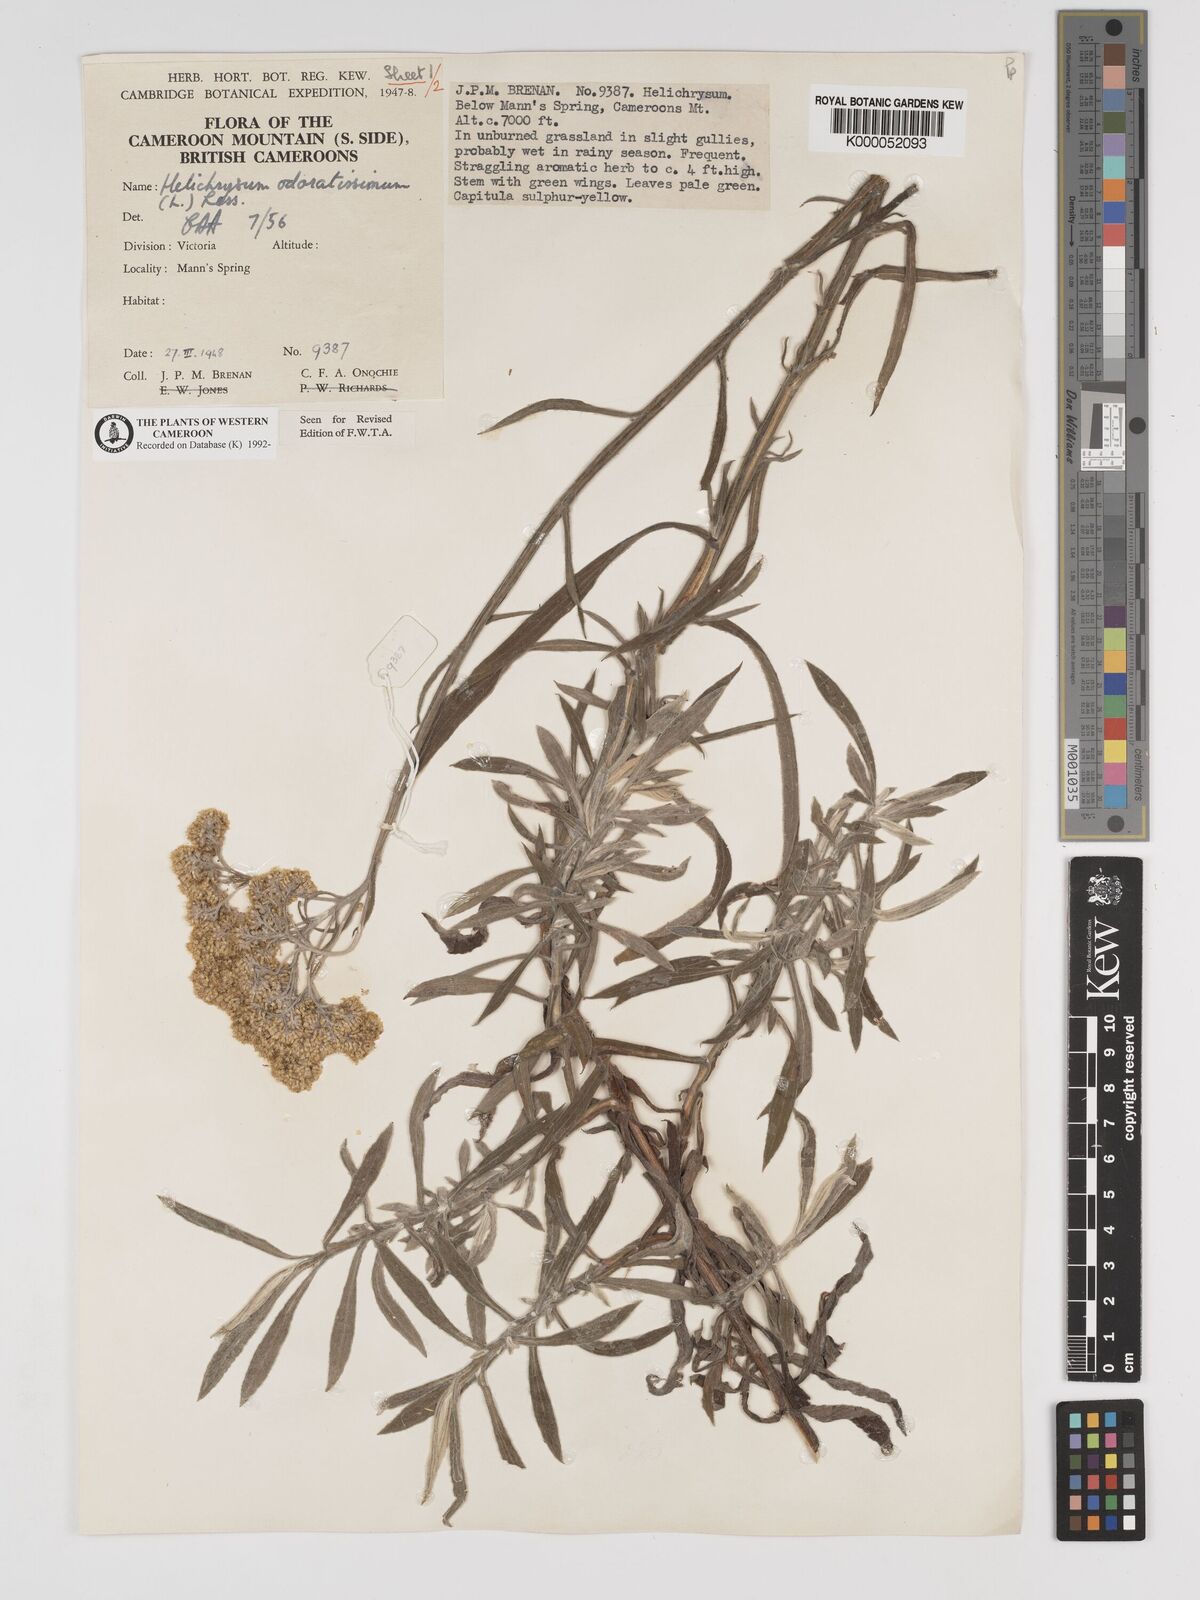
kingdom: Plantae
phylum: Tracheophyta
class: Magnoliopsida
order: Asterales
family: Asteraceae
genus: Helichrysum
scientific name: Helichrysum odoratissimum
